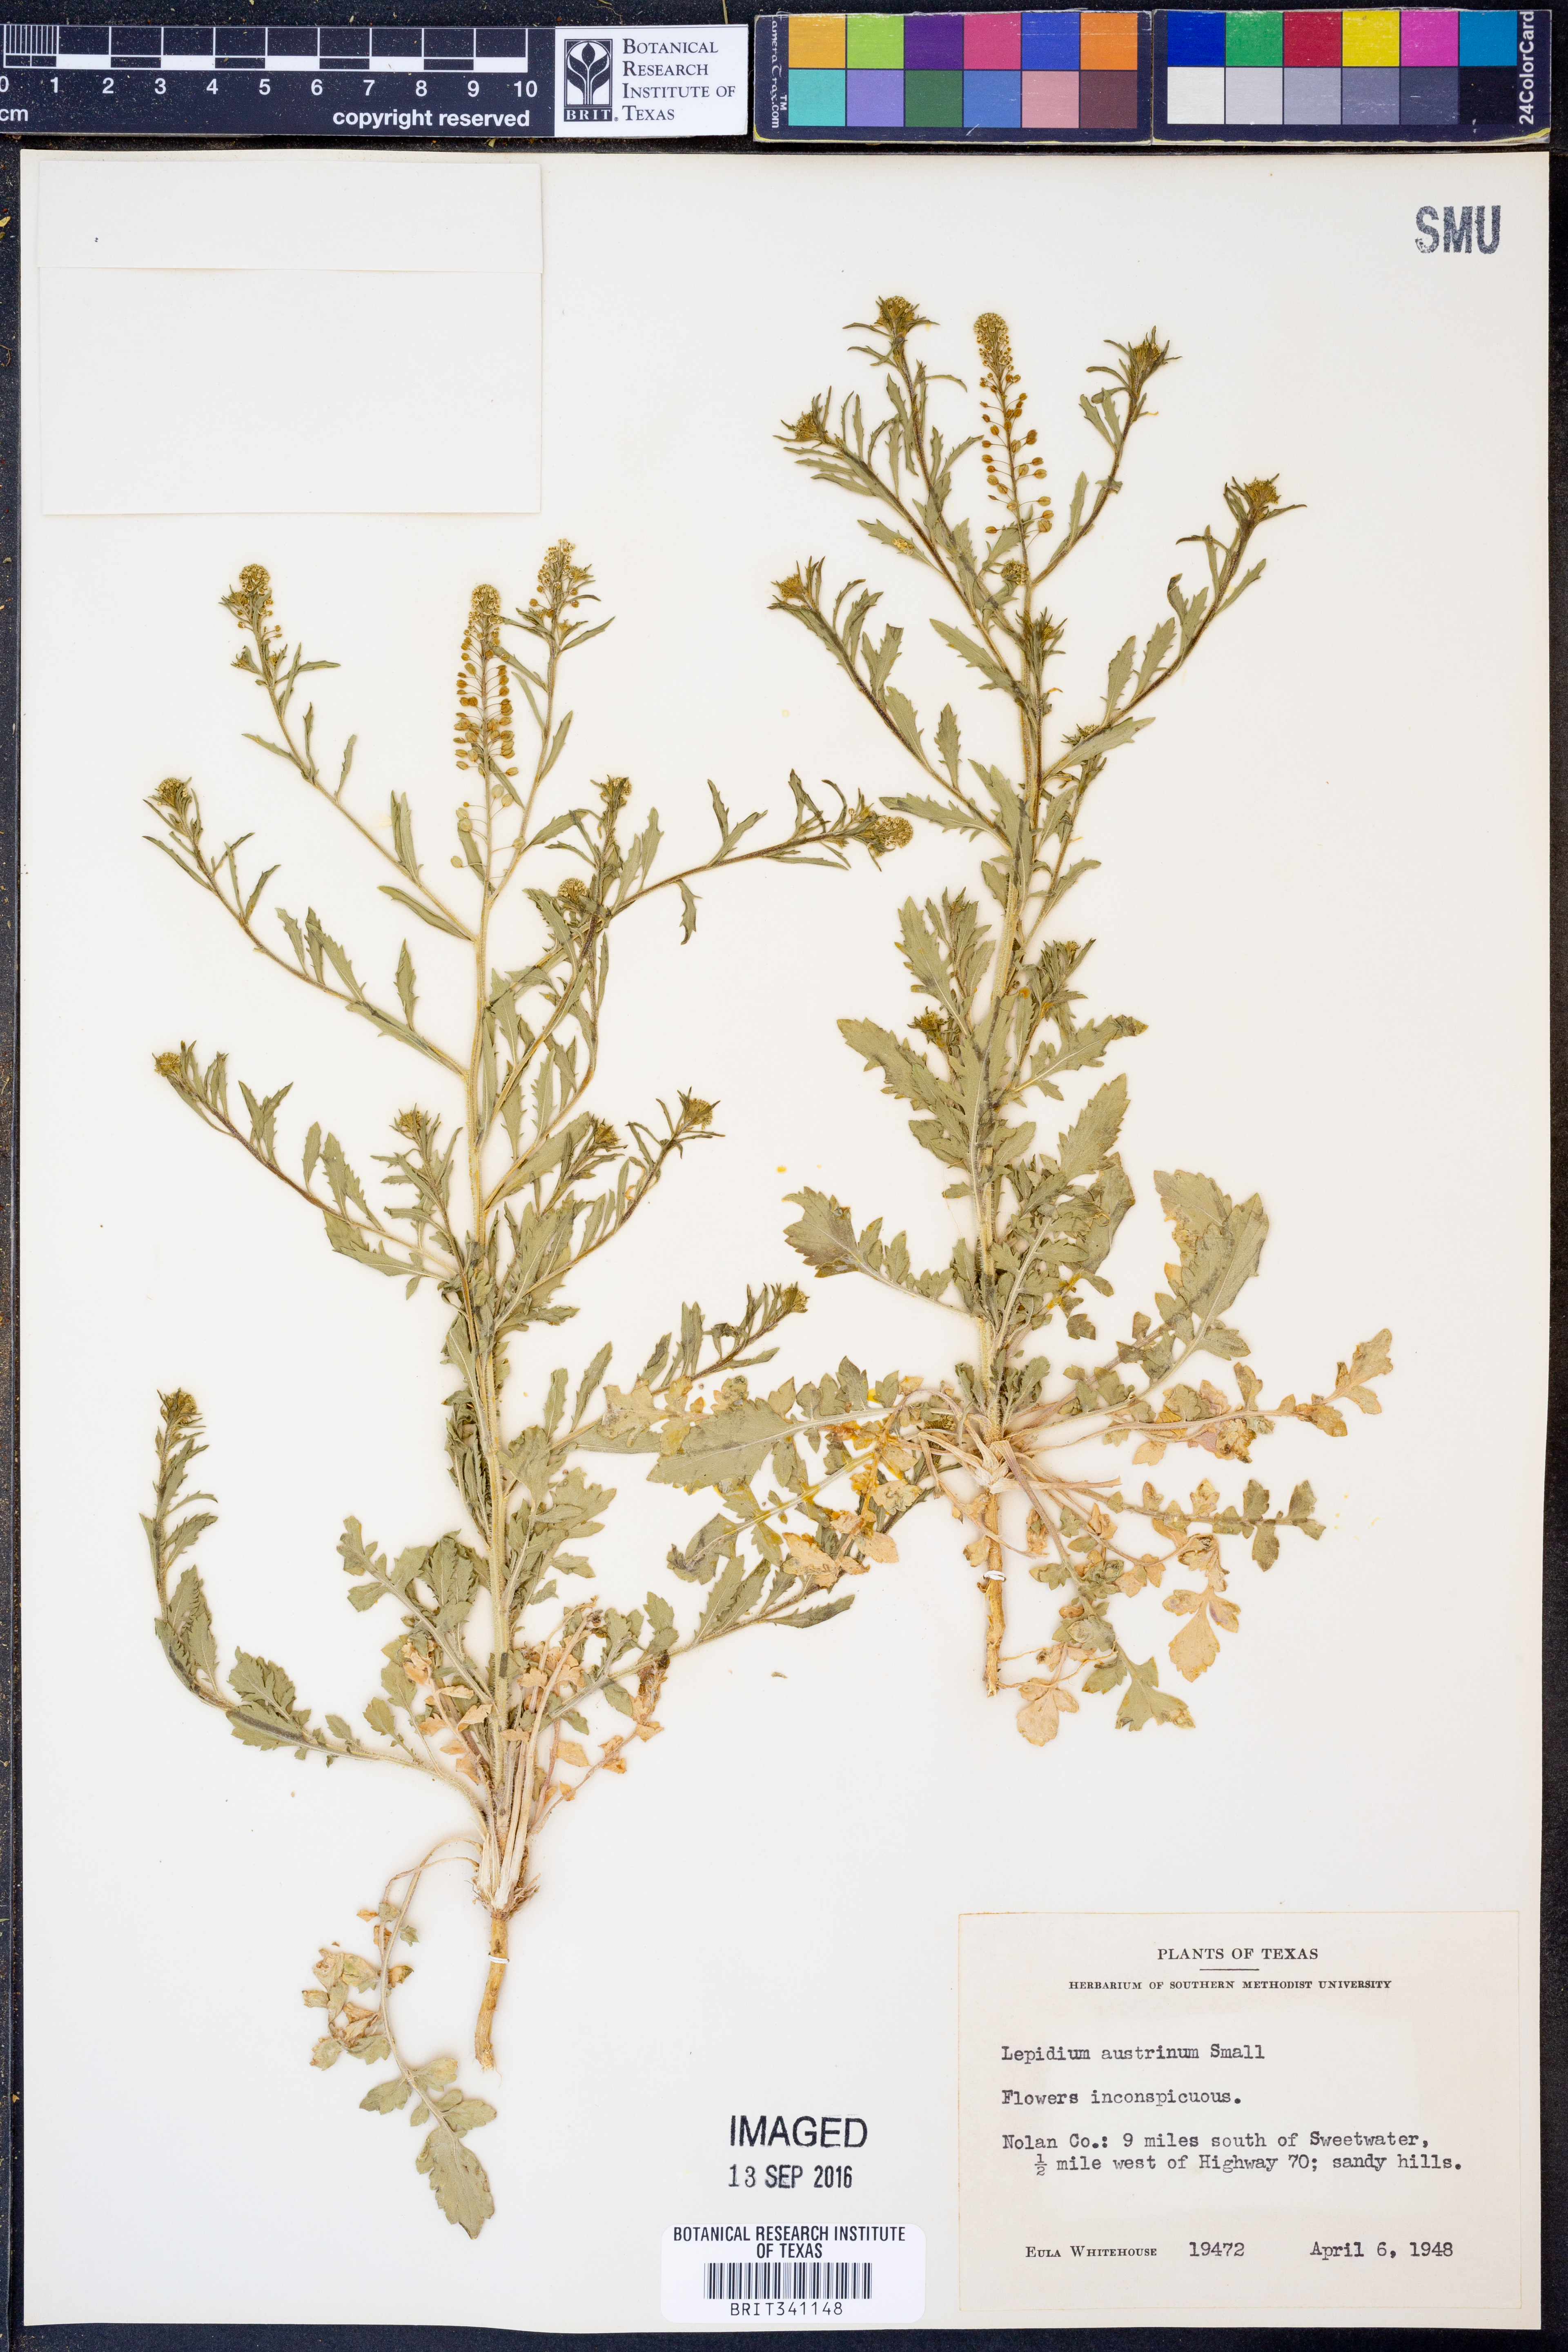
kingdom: Plantae
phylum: Tracheophyta
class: Magnoliopsida
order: Brassicales
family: Brassicaceae
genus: Lepidium
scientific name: Lepidium austrinum
